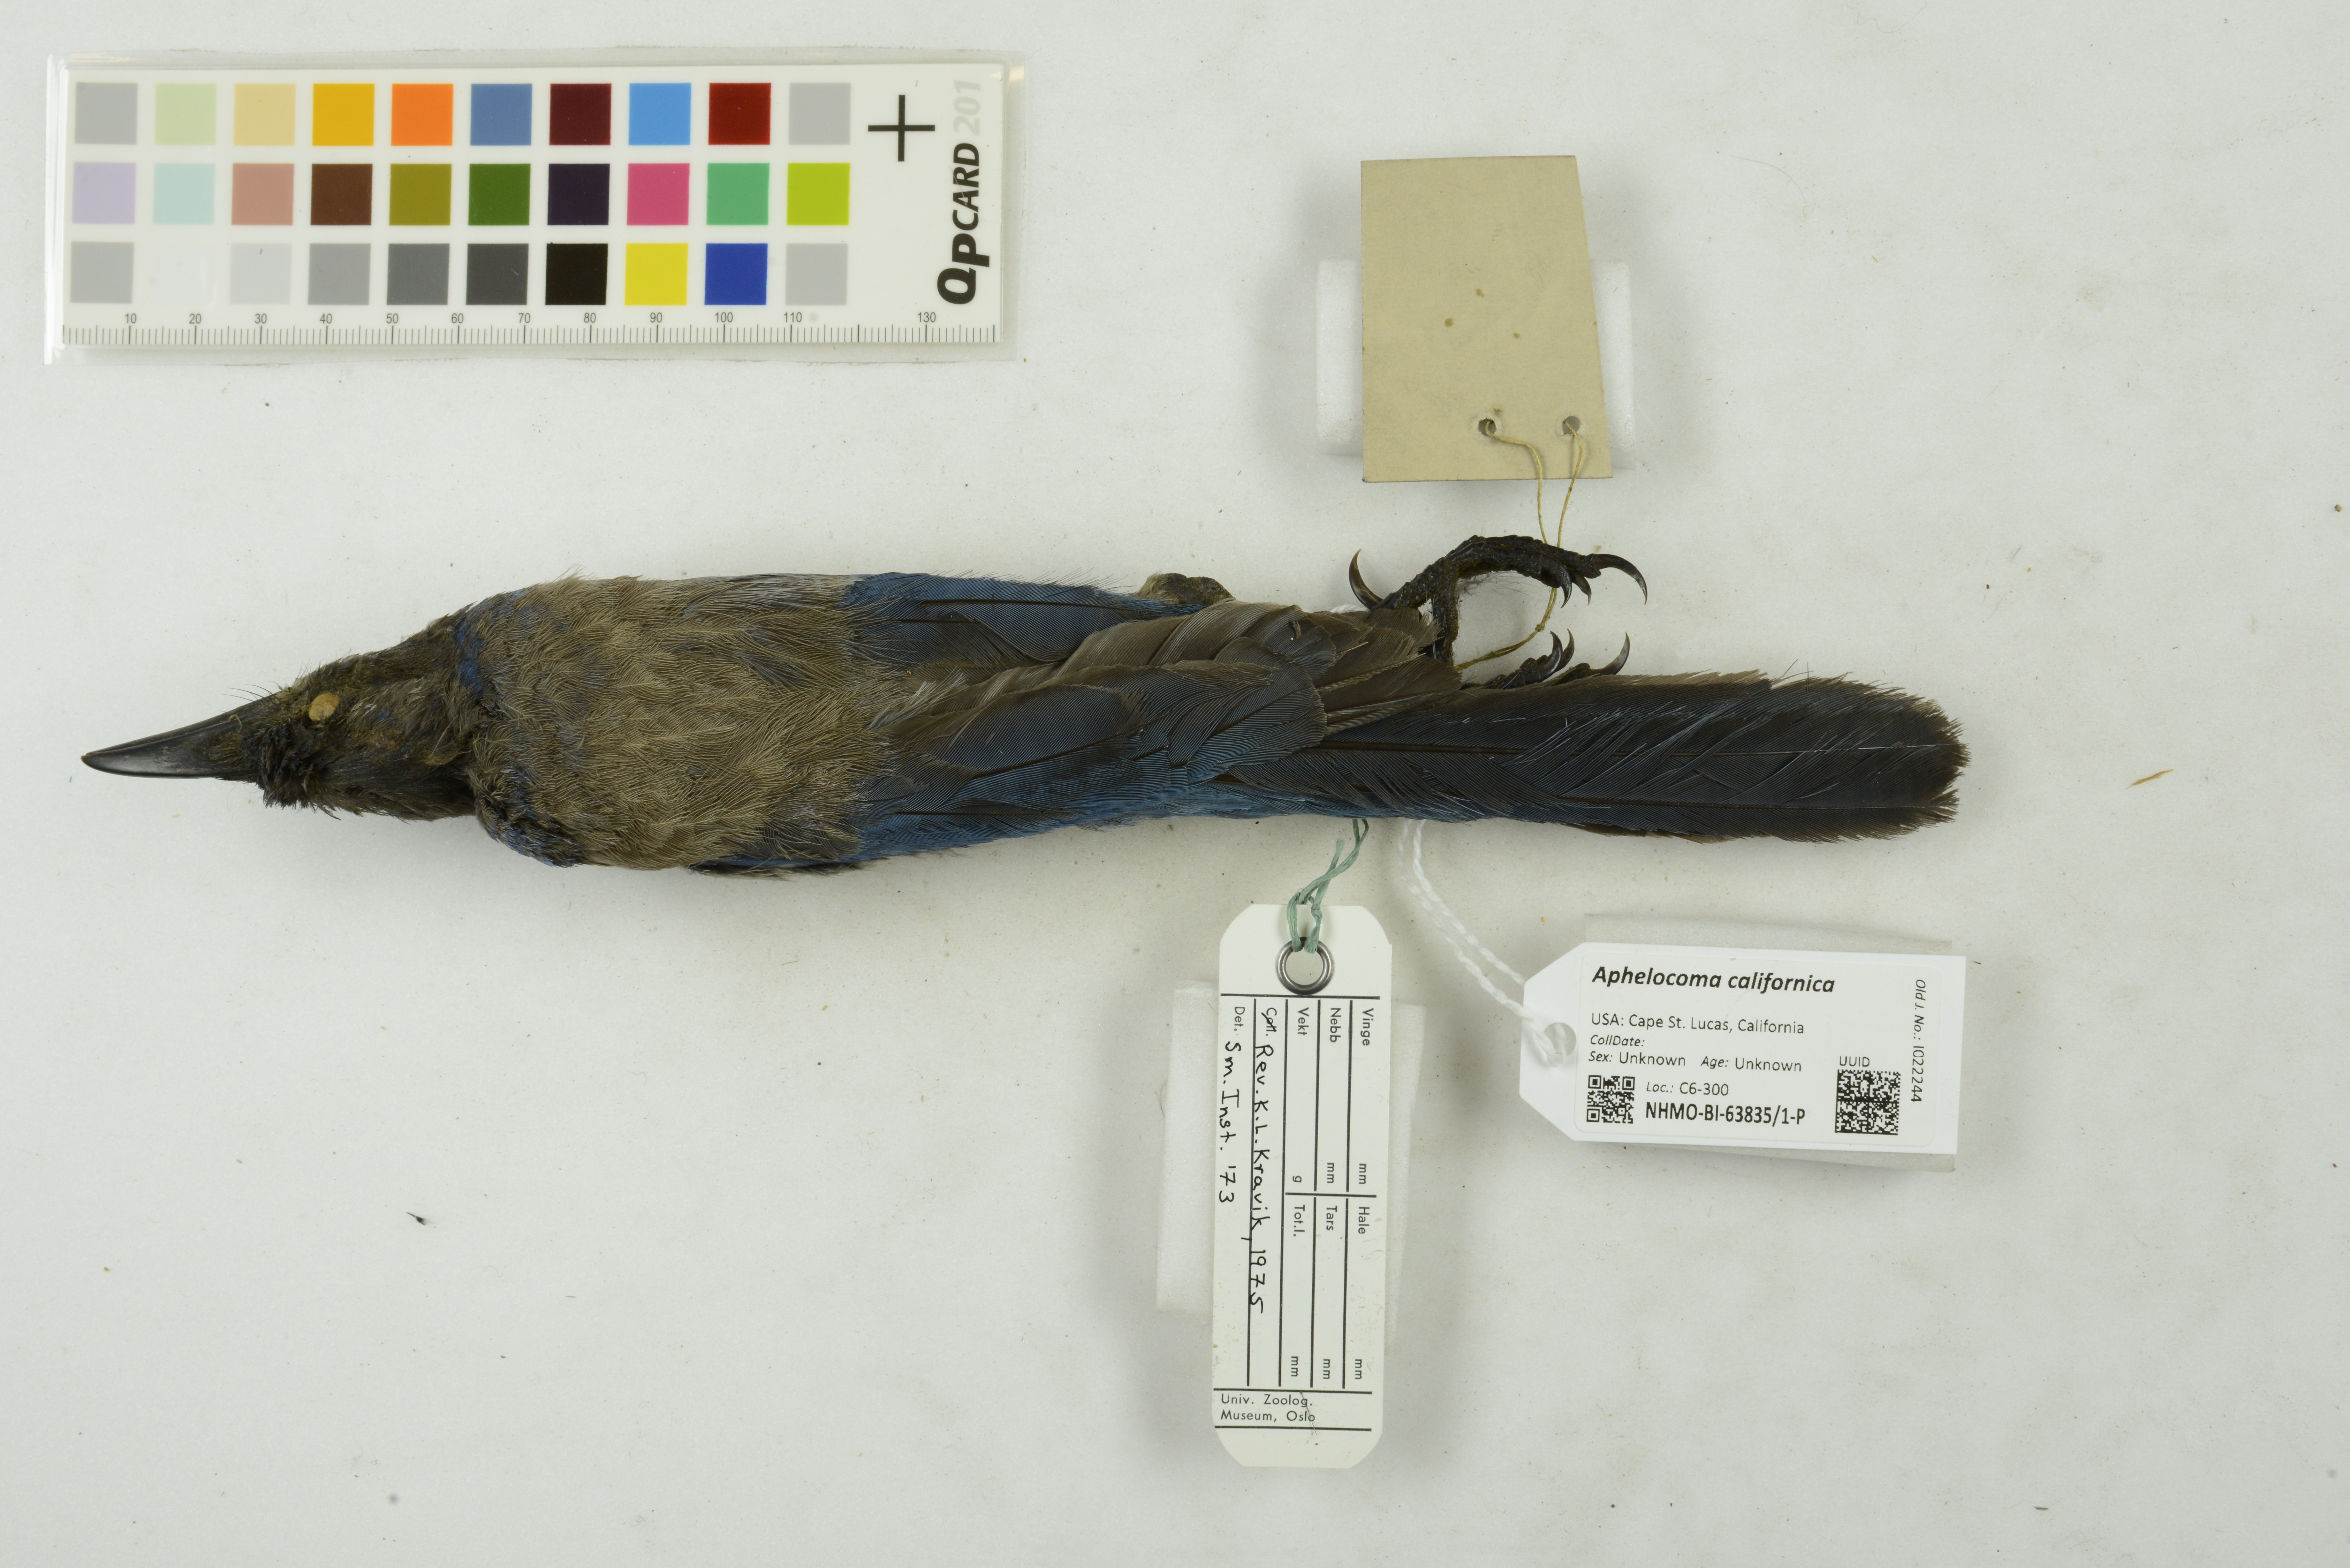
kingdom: Animalia
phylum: Chordata
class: Aves
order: Passeriformes
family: Corvidae
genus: Aphelocoma
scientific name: Aphelocoma californica
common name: California scrub-jay
